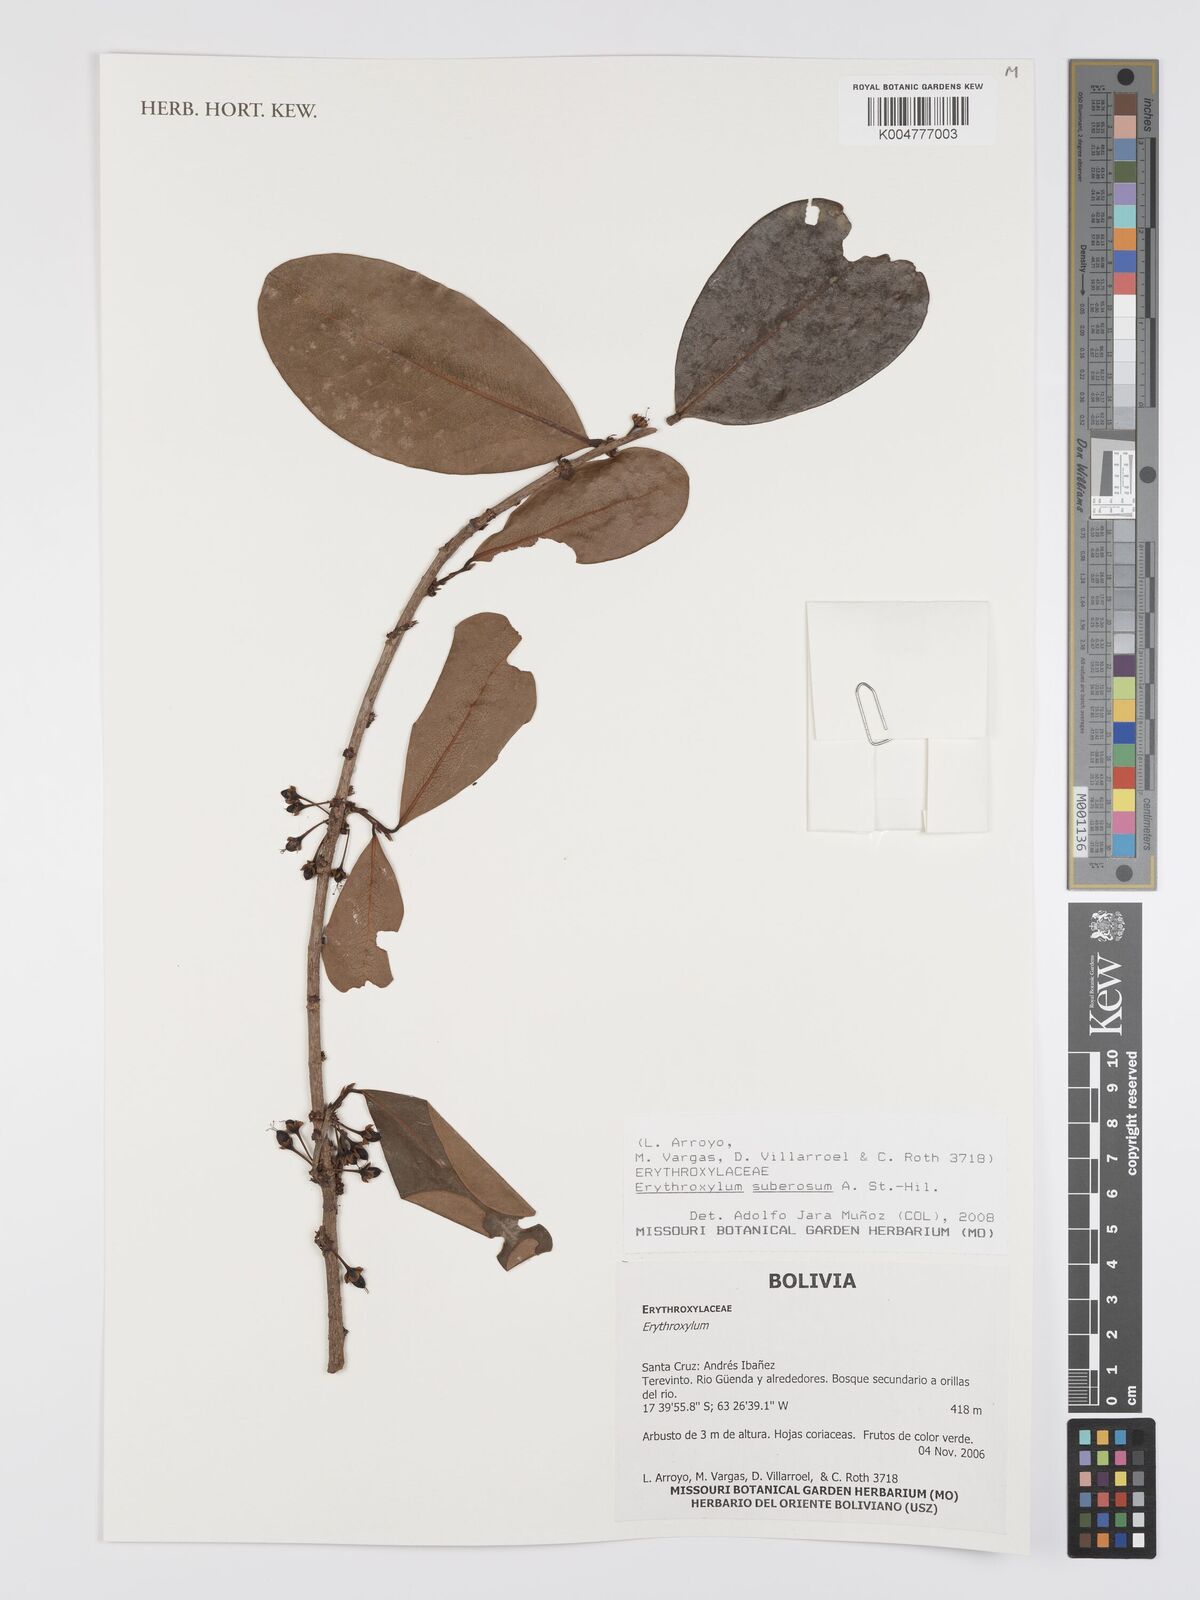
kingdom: Plantae
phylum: Tracheophyta
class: Magnoliopsida
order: Malpighiales
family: Erythroxylaceae
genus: Erythroxylum
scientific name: Erythroxylum suberosum
